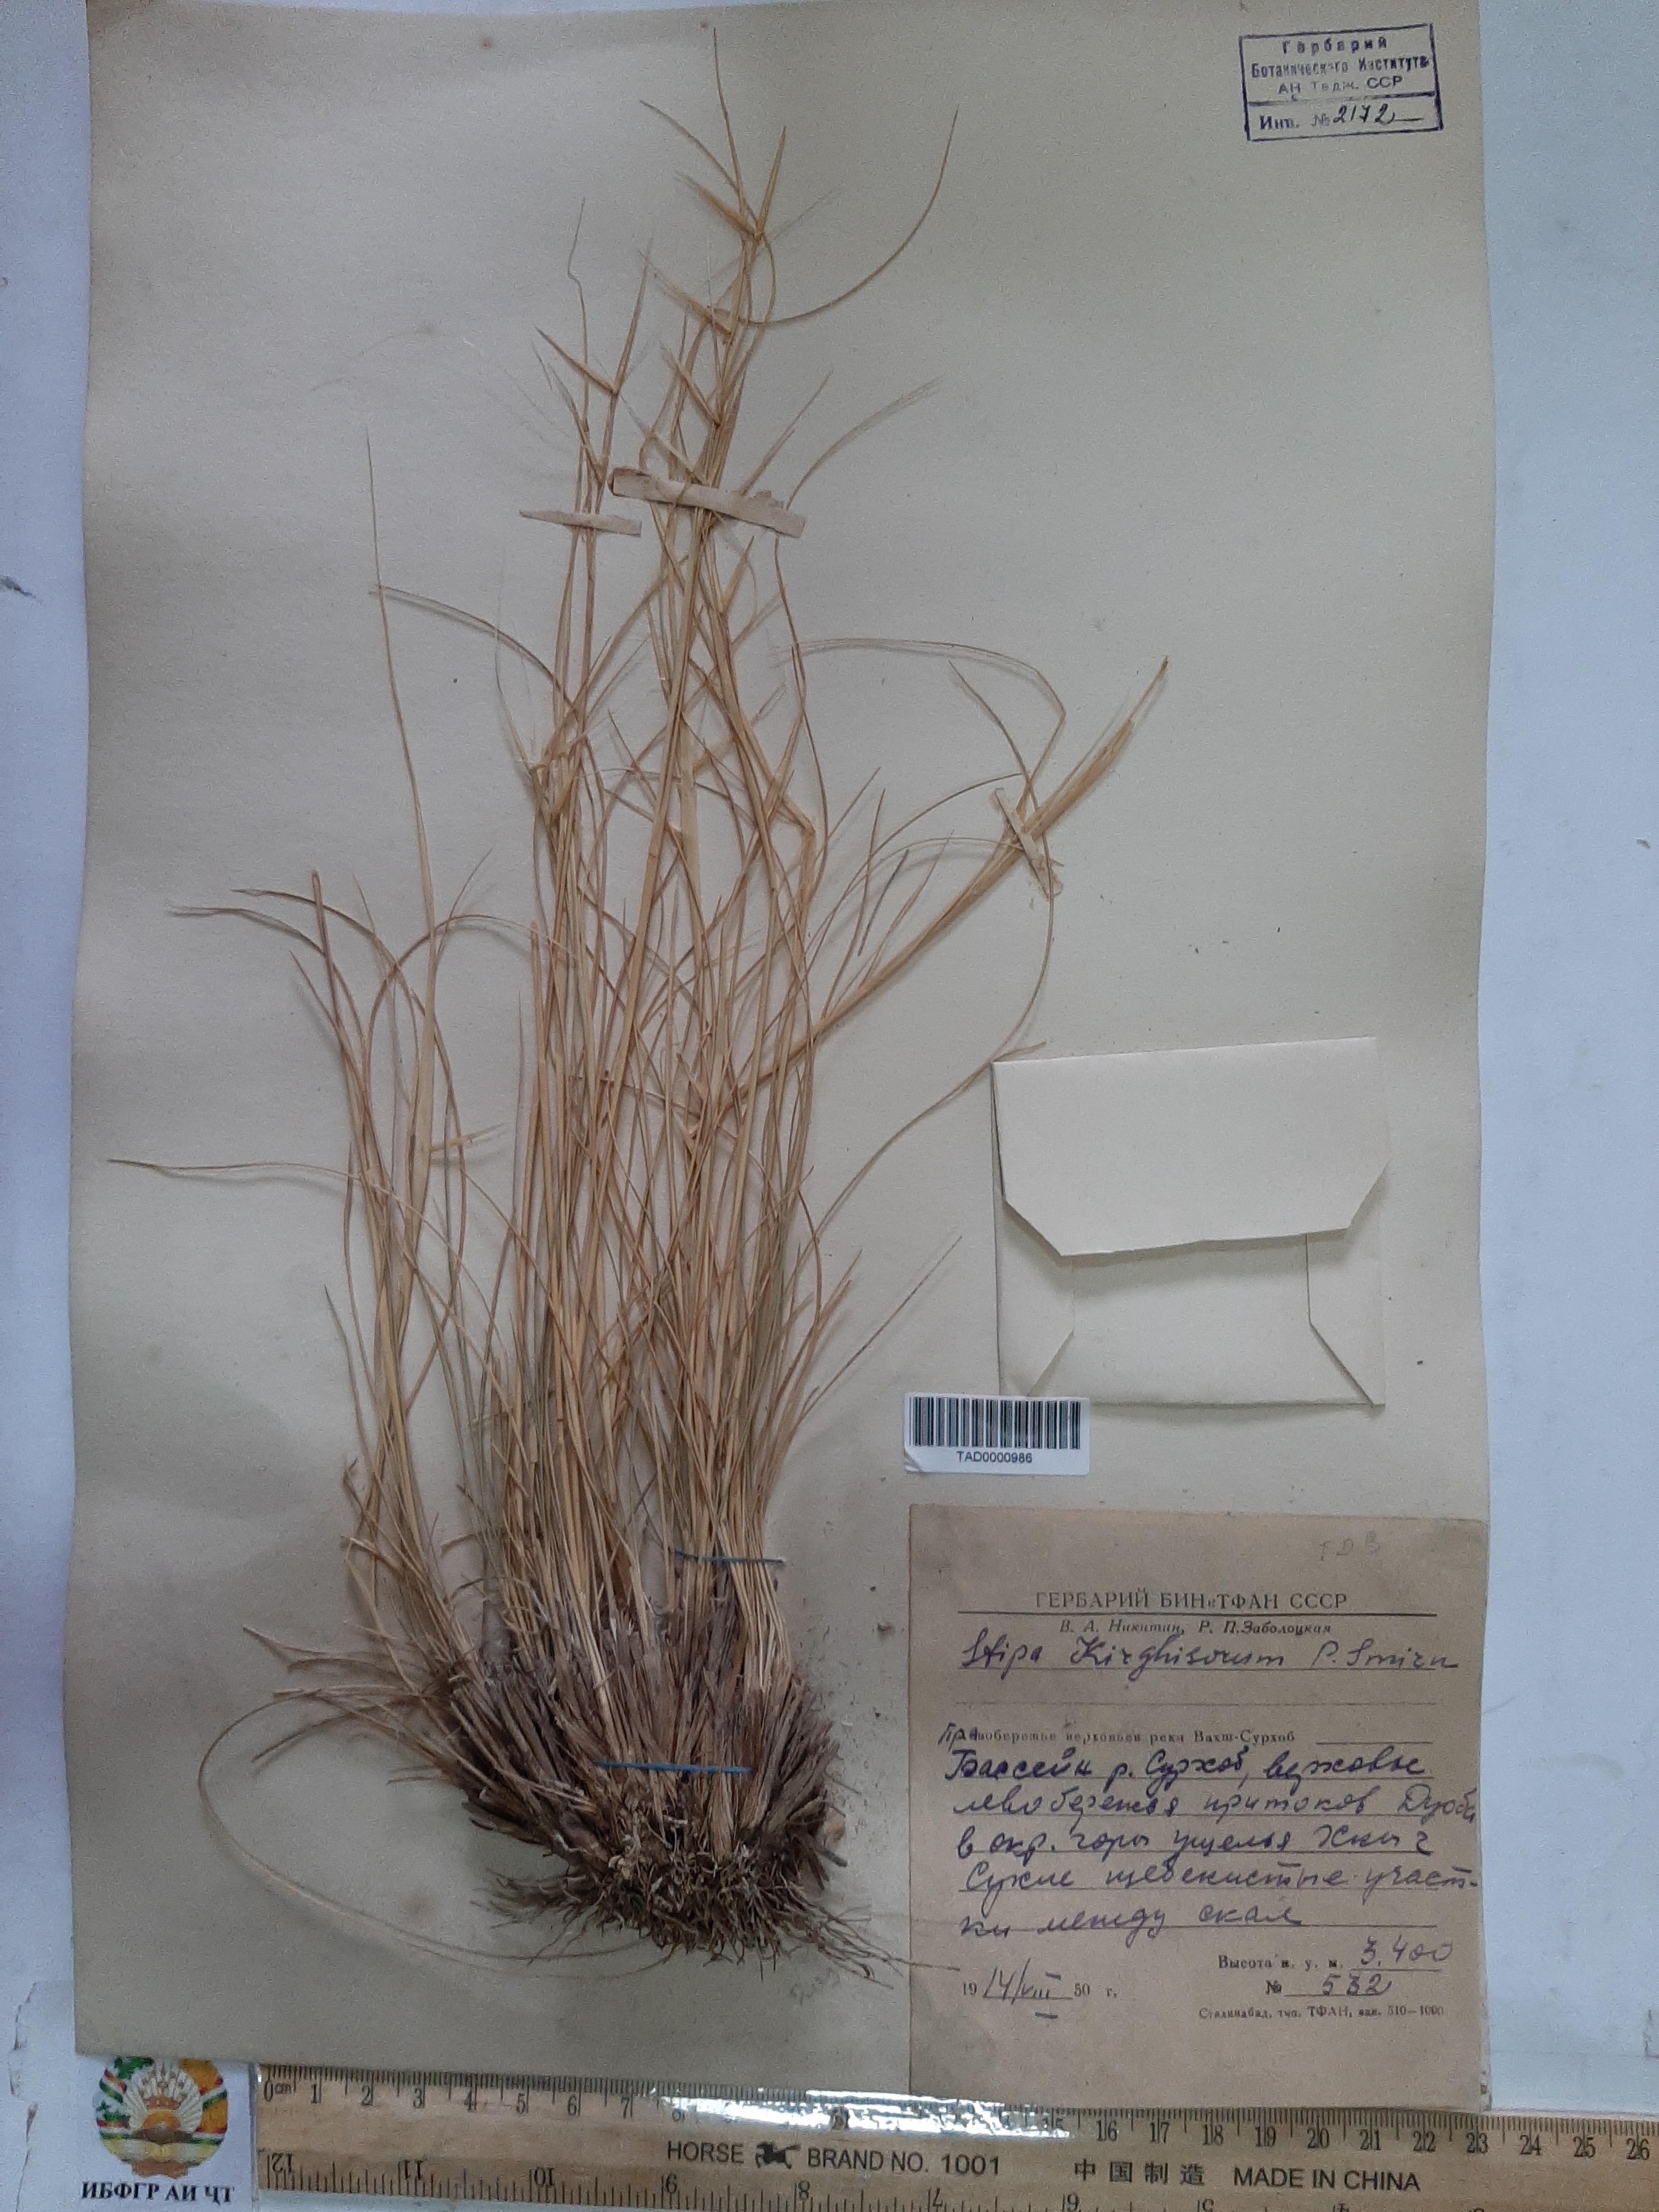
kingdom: Plantae
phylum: Tracheophyta
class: Liliopsida
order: Poales
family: Poaceae
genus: Stipa
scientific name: Stipa kirghisorum
